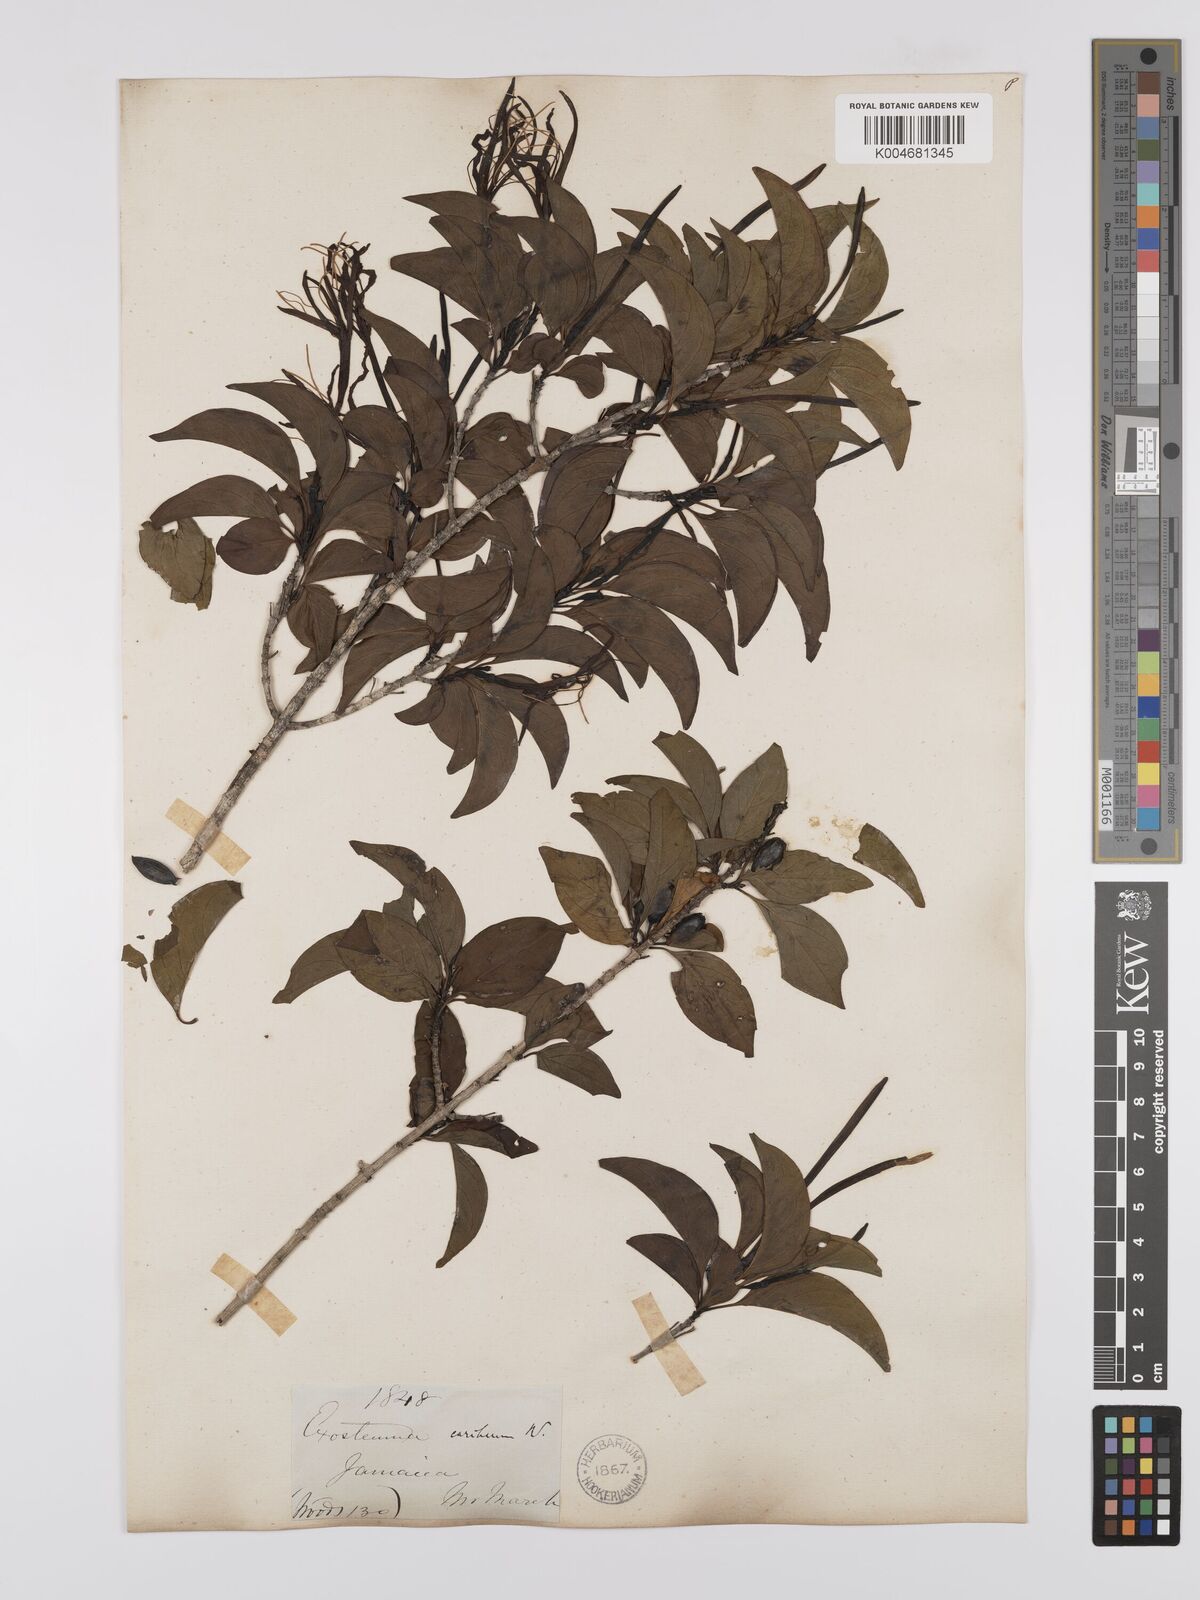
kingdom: Plantae
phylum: Tracheophyta
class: Magnoliopsida
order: Gentianales
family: Rubiaceae
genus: Exostema
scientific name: Exostema caribaeum
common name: Princewood
